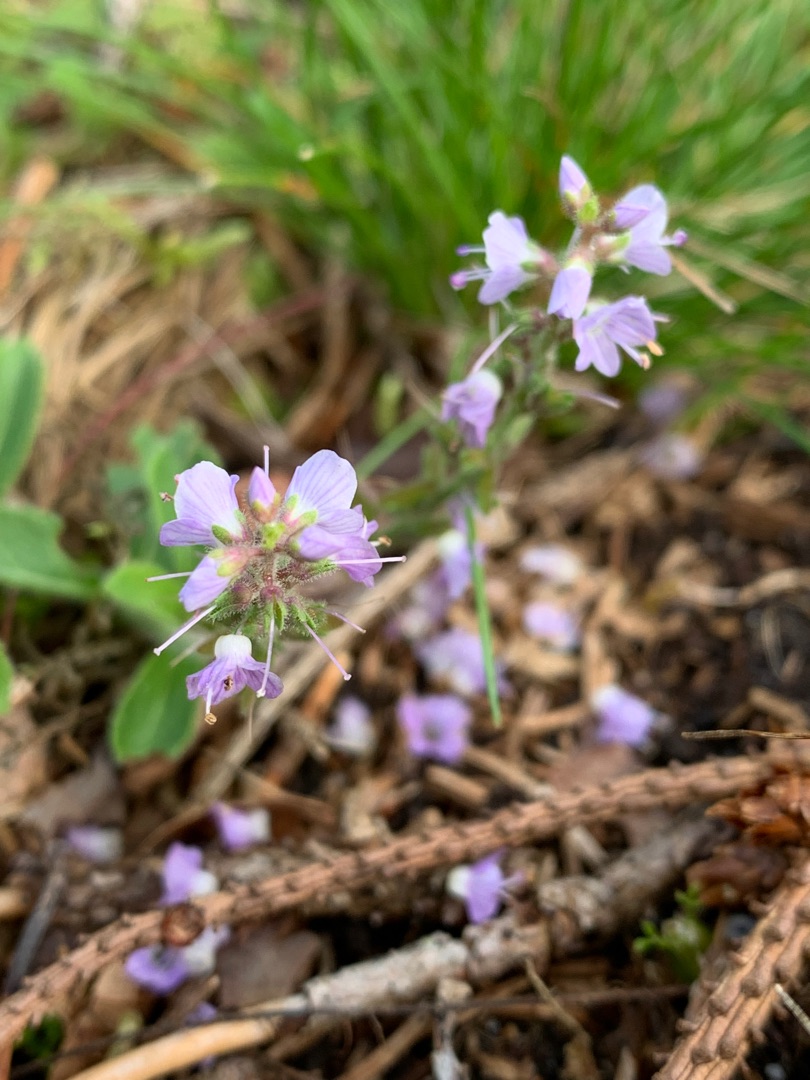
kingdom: Plantae
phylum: Tracheophyta
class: Magnoliopsida
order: Lamiales
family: Plantaginaceae
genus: Veronica
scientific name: Veronica officinalis
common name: Læge-ærenpris
